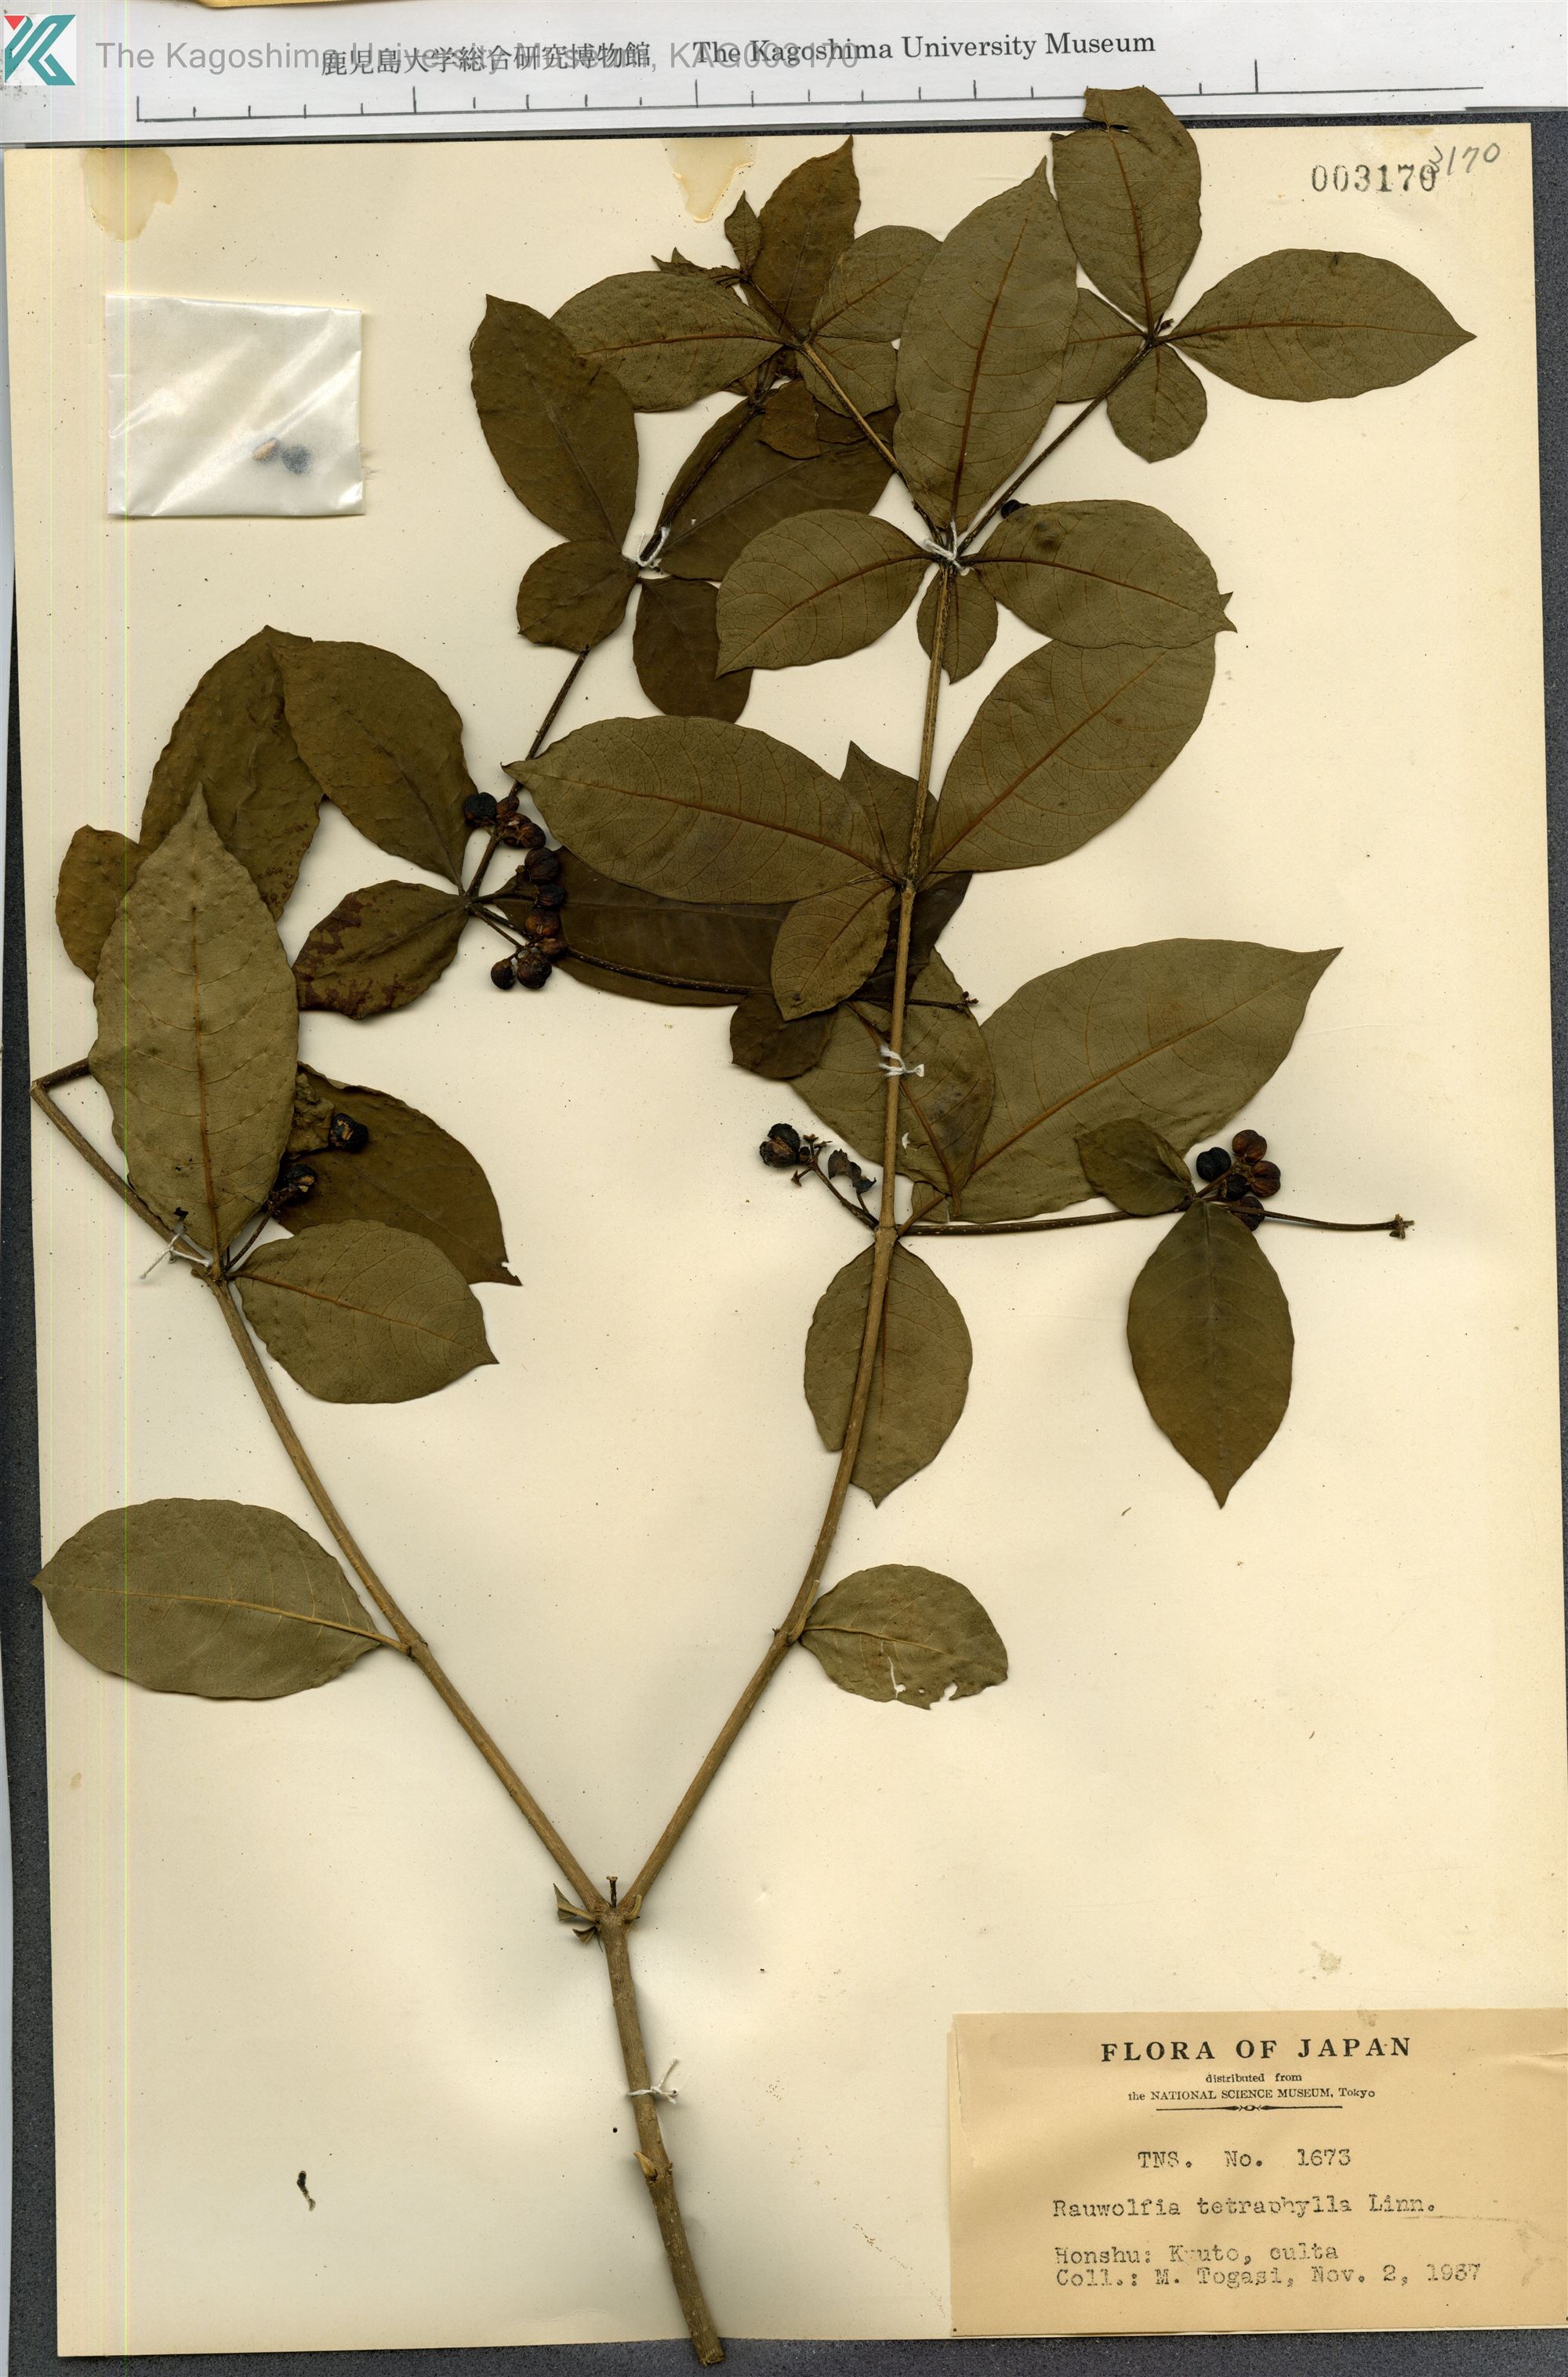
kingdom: Plantae
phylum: Tracheophyta
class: Magnoliopsida
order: Gentianales
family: Apocynaceae
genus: Rauvolfia
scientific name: Rauvolfia tetraphylla
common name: Four-leaf devil-pepper
